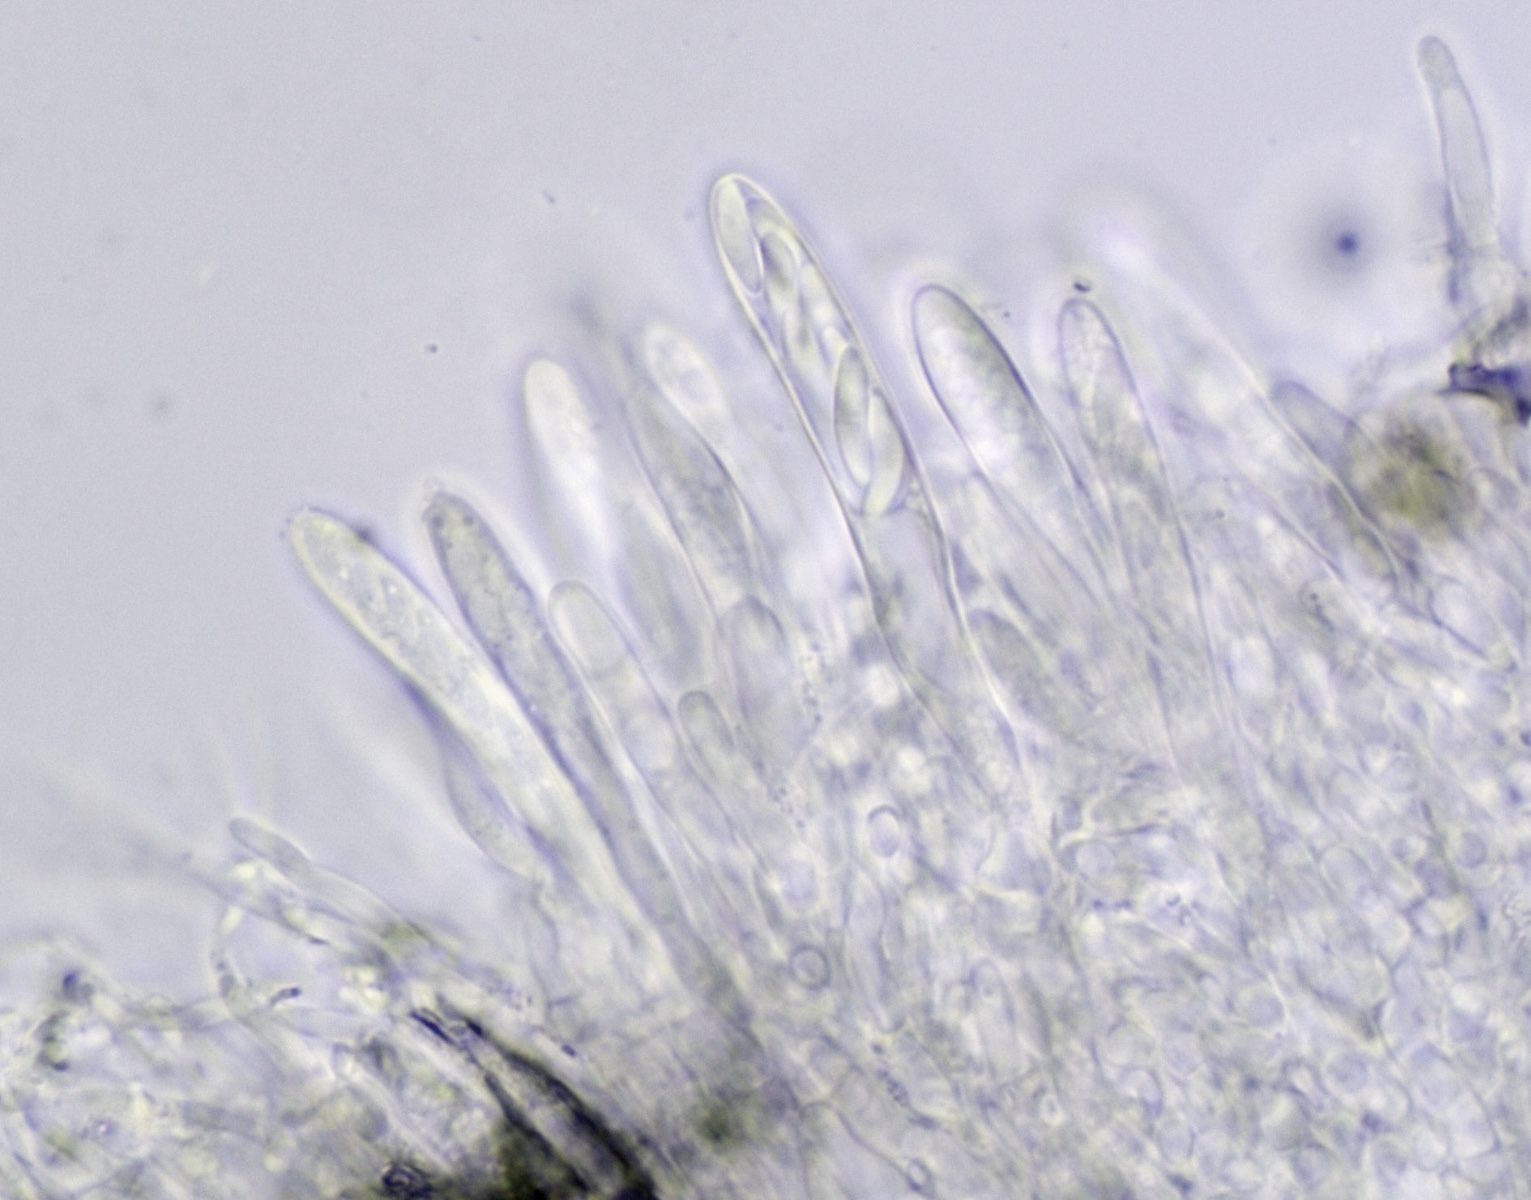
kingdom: Fungi
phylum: Ascomycota
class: Leotiomycetes
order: Helotiales
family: Arachnopezizaceae
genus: Arachnopeziza
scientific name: Arachnopeziza eriobasis
